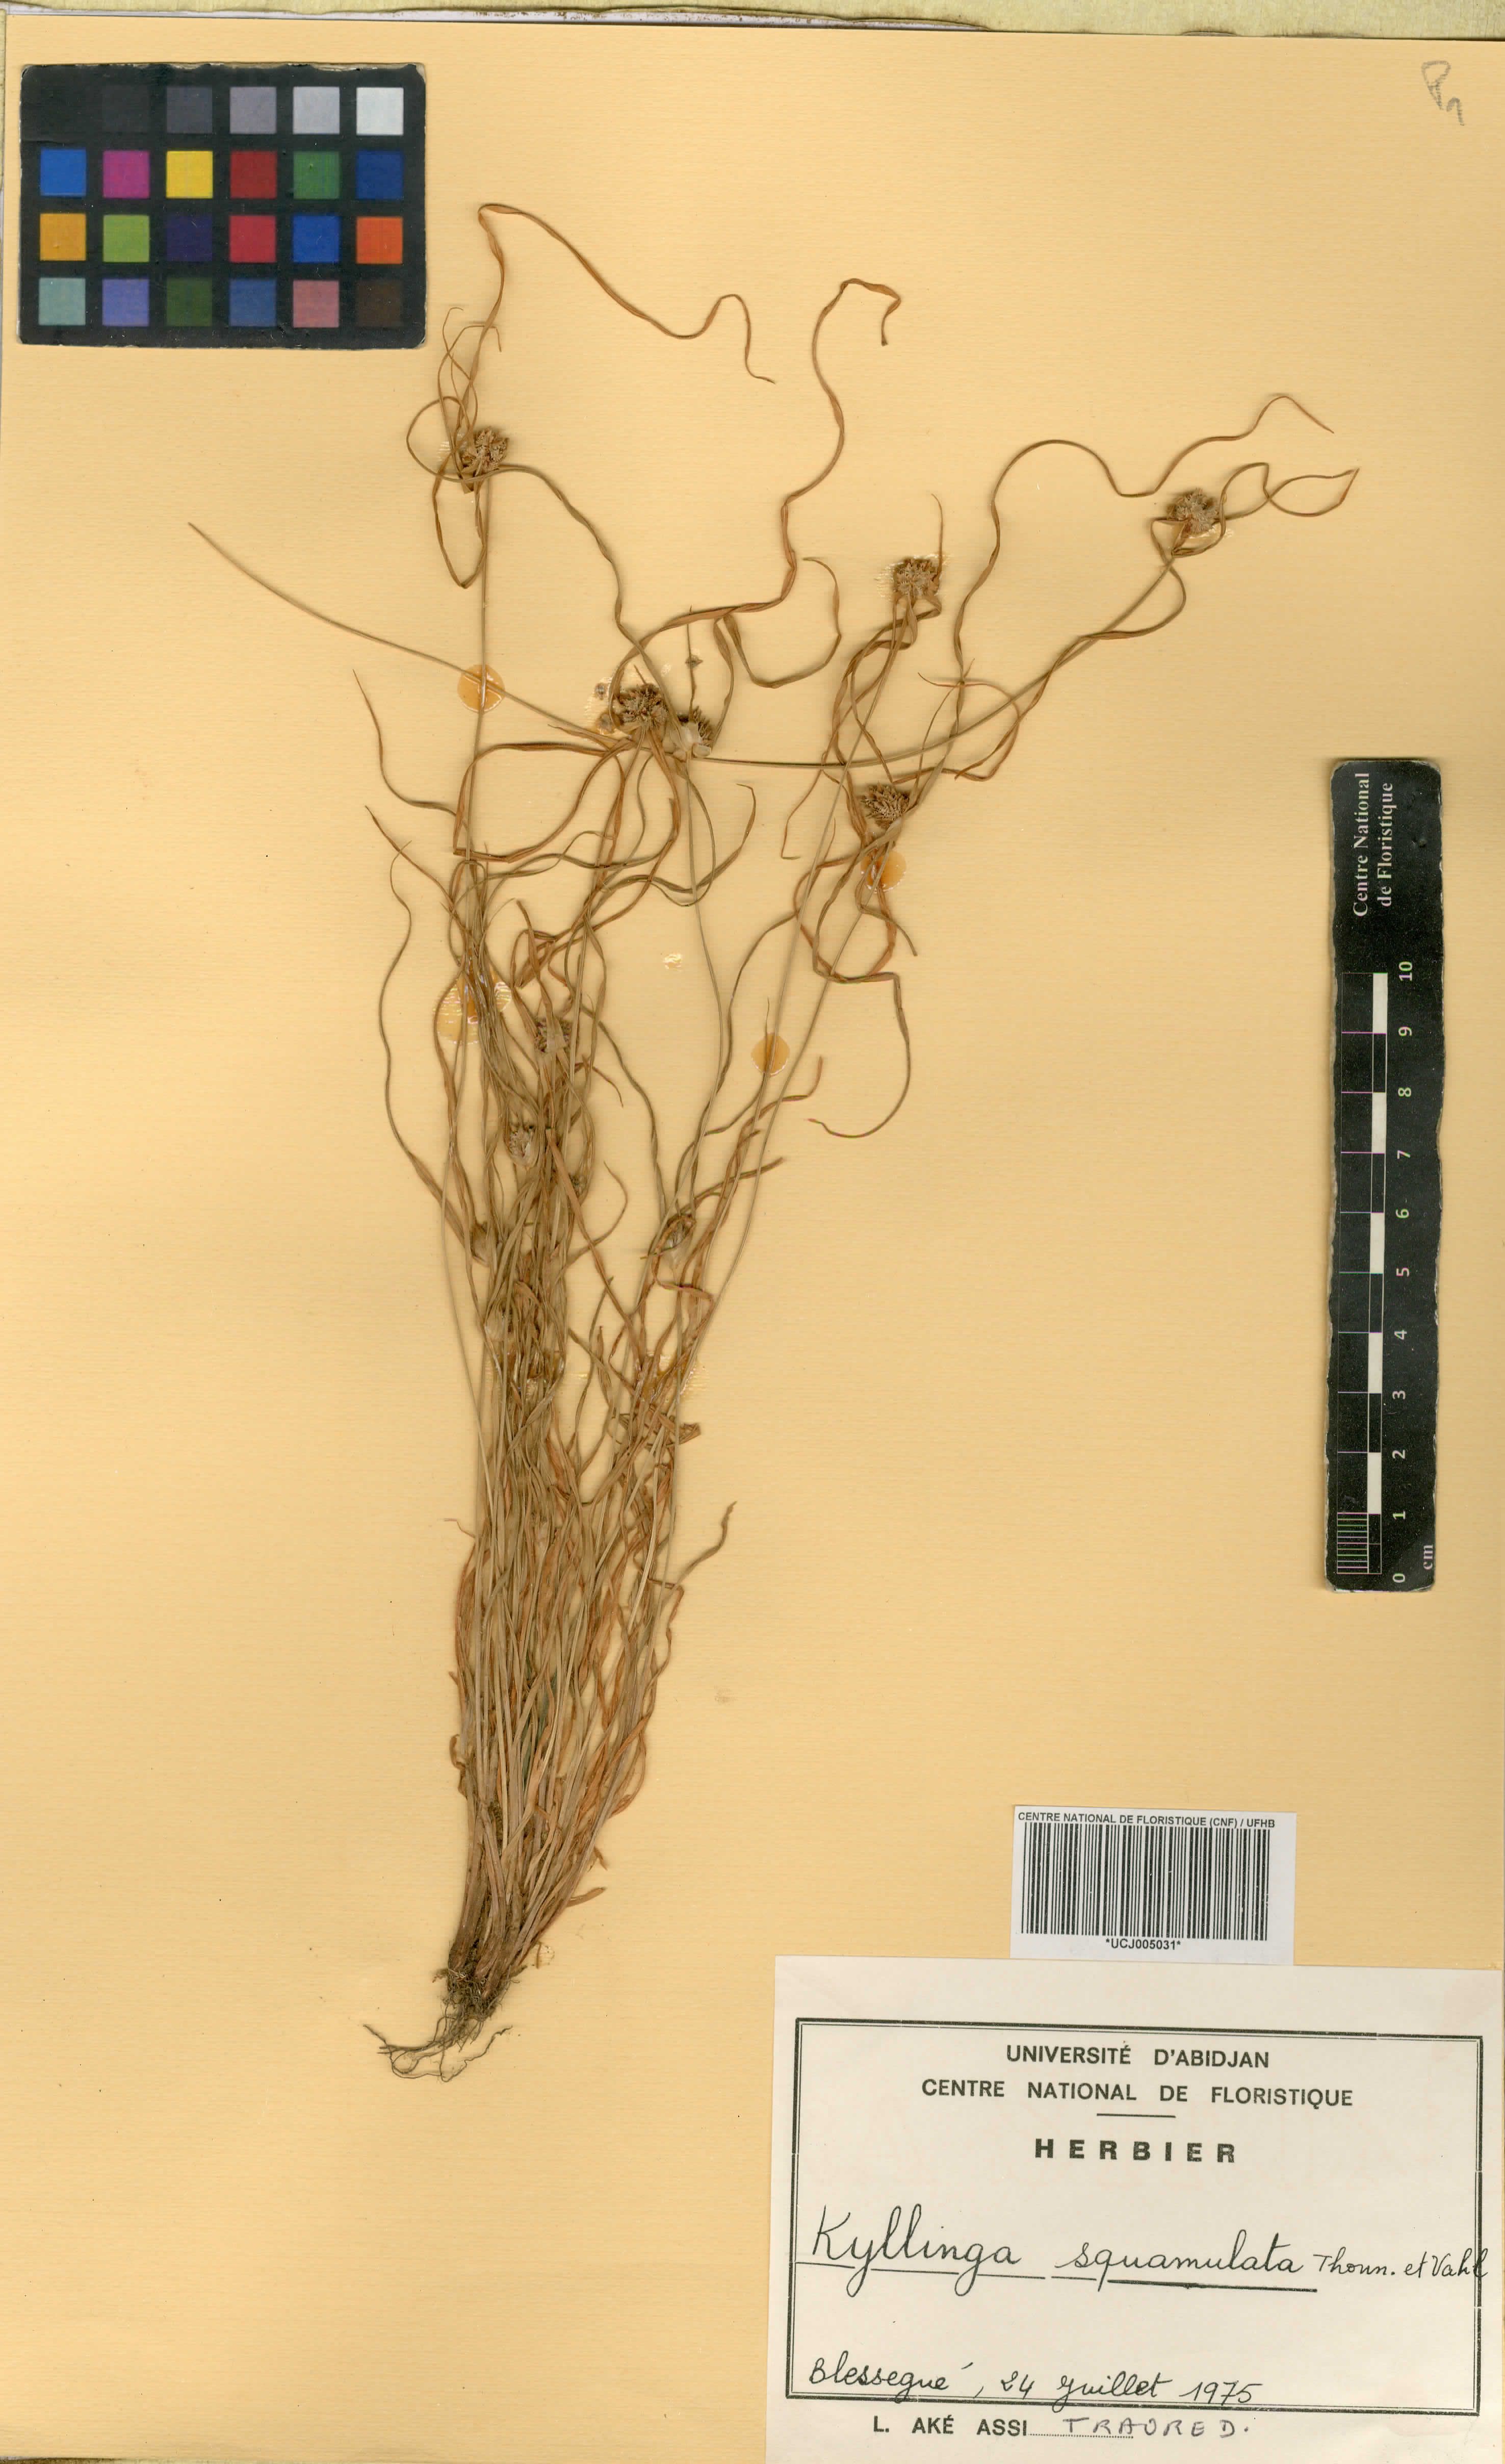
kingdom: Plantae
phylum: Tracheophyta
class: Liliopsida
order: Poales
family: Cyperaceae
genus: Cyperus
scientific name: Cyperus metzii
